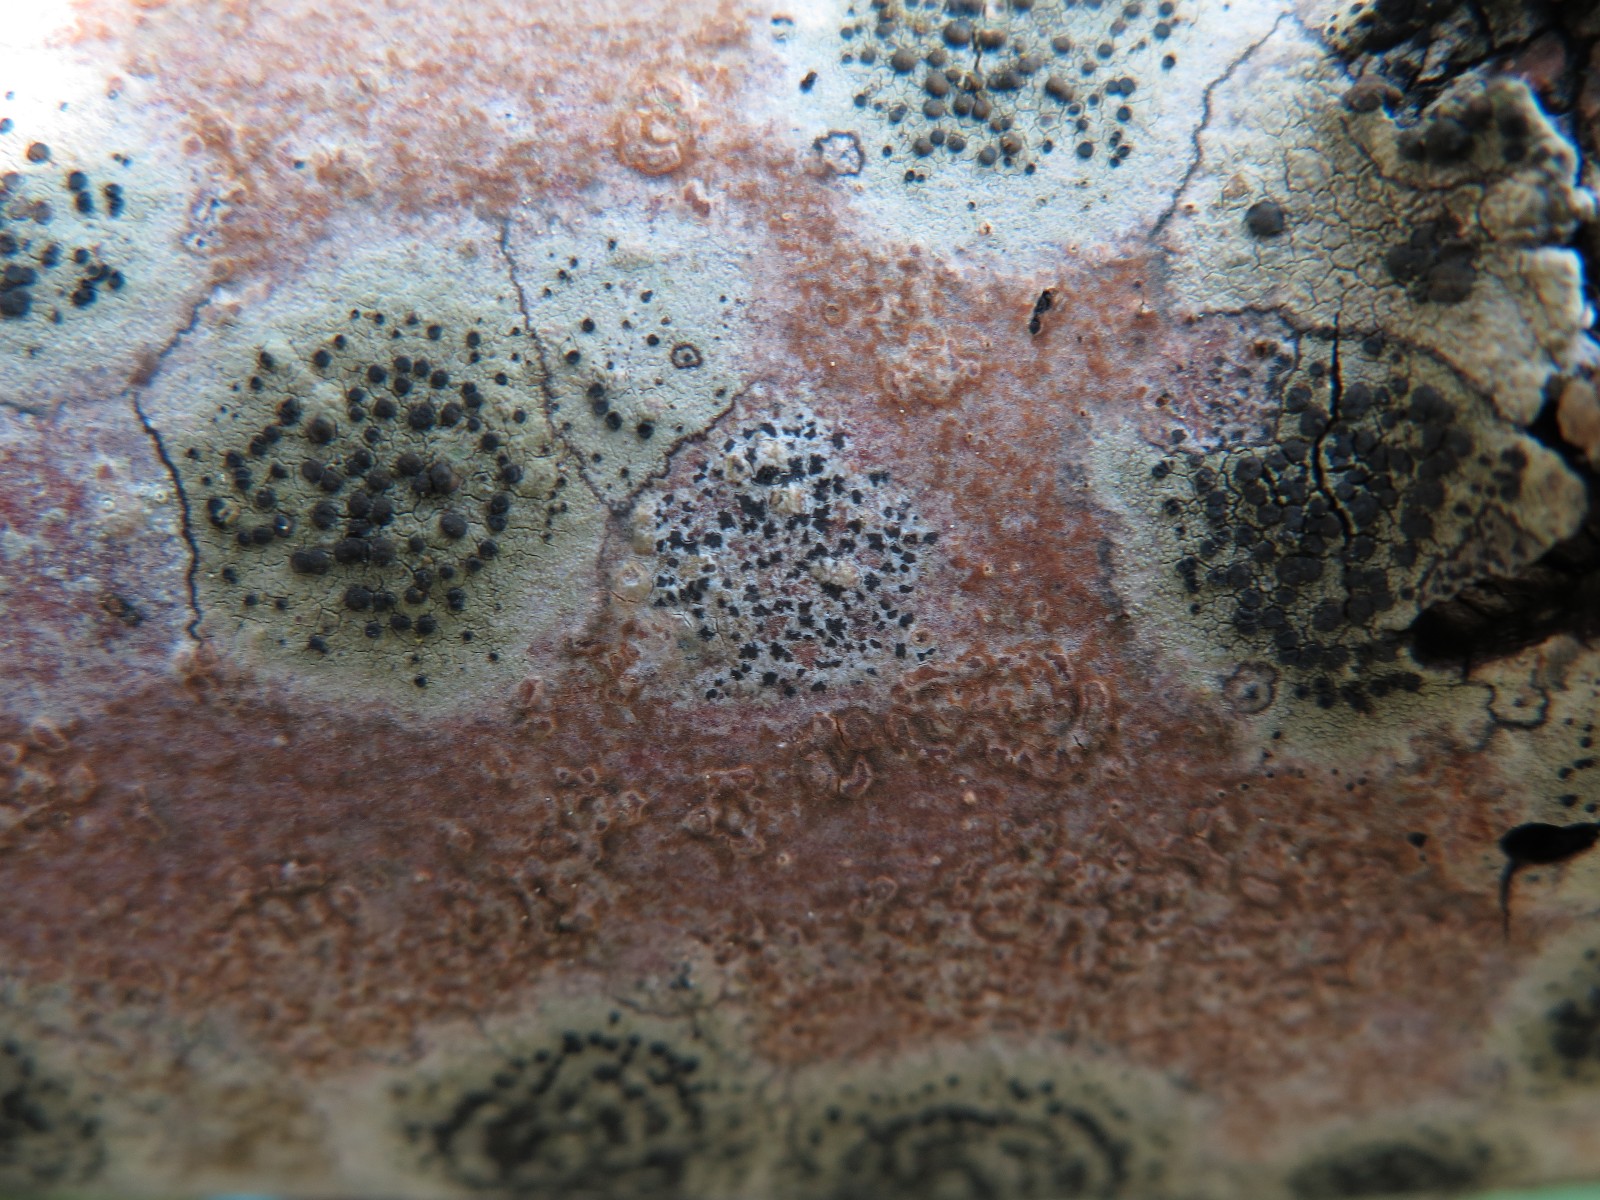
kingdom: Fungi
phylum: Ascomycota
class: Arthoniomycetes
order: Arthoniales
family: Arthoniaceae
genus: Arthonia
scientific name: Arthonia radiata
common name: stjerne-pletlav
